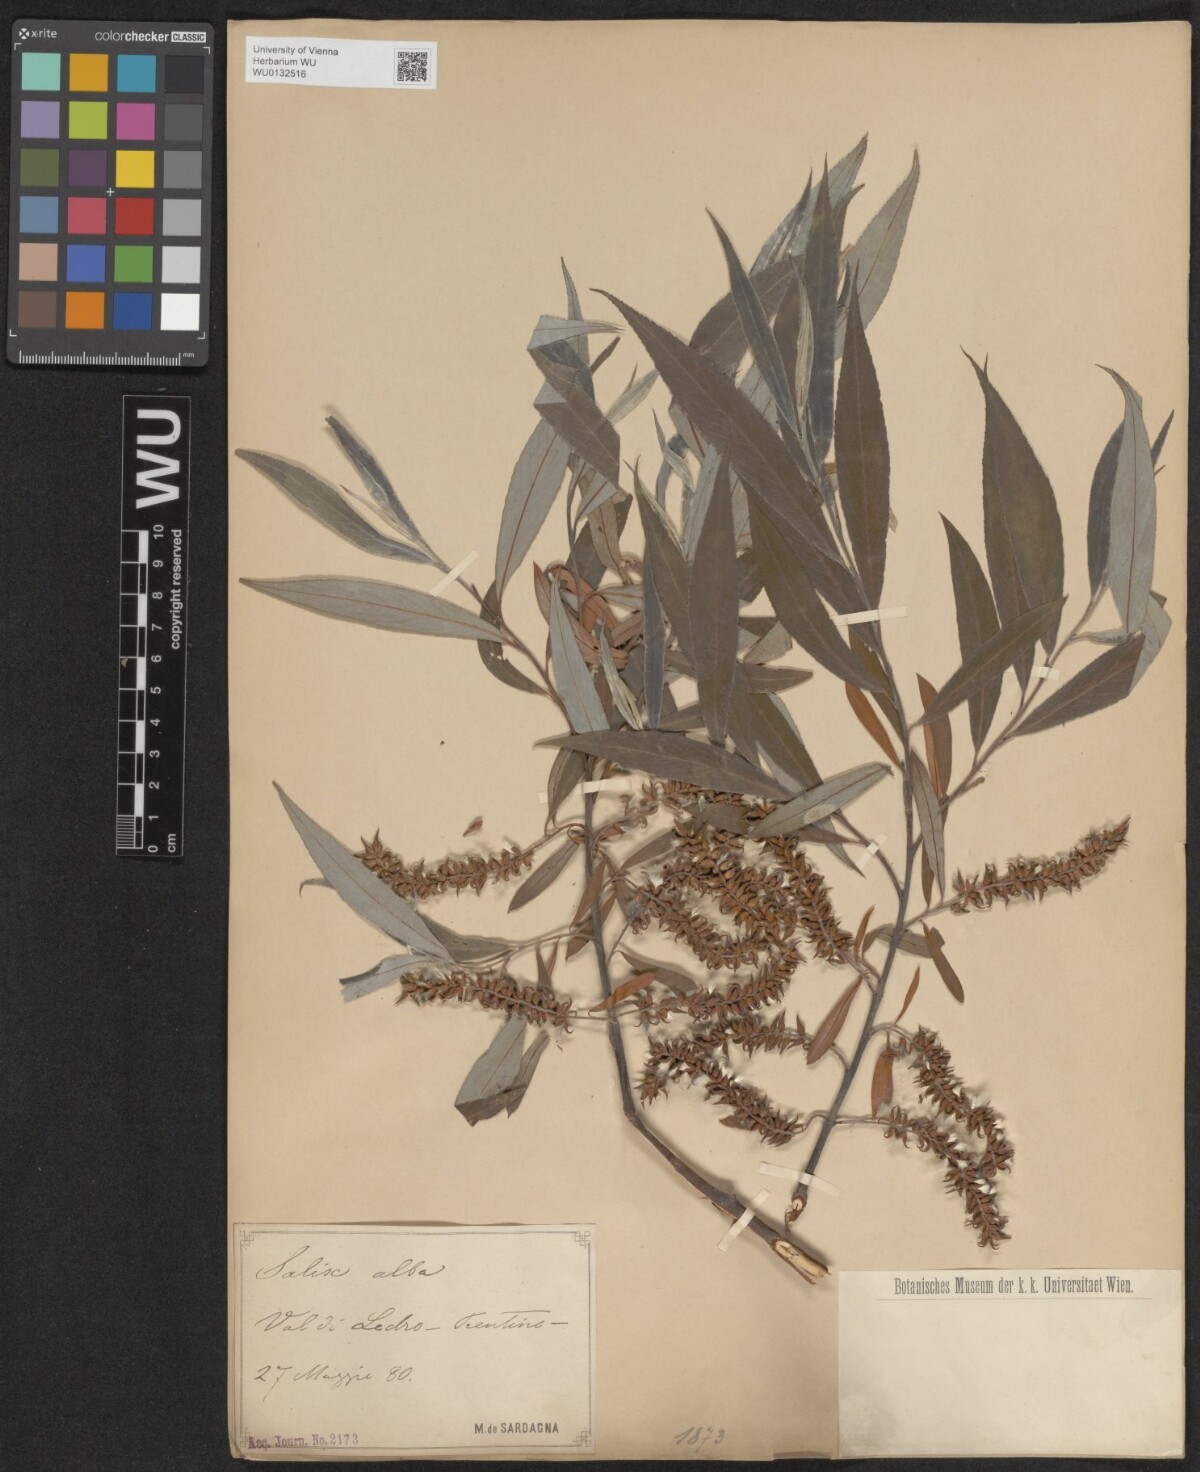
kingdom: Plantae
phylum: Tracheophyta
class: Magnoliopsida
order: Malpighiales
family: Salicaceae
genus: Salix
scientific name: Salix alba
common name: White willow
